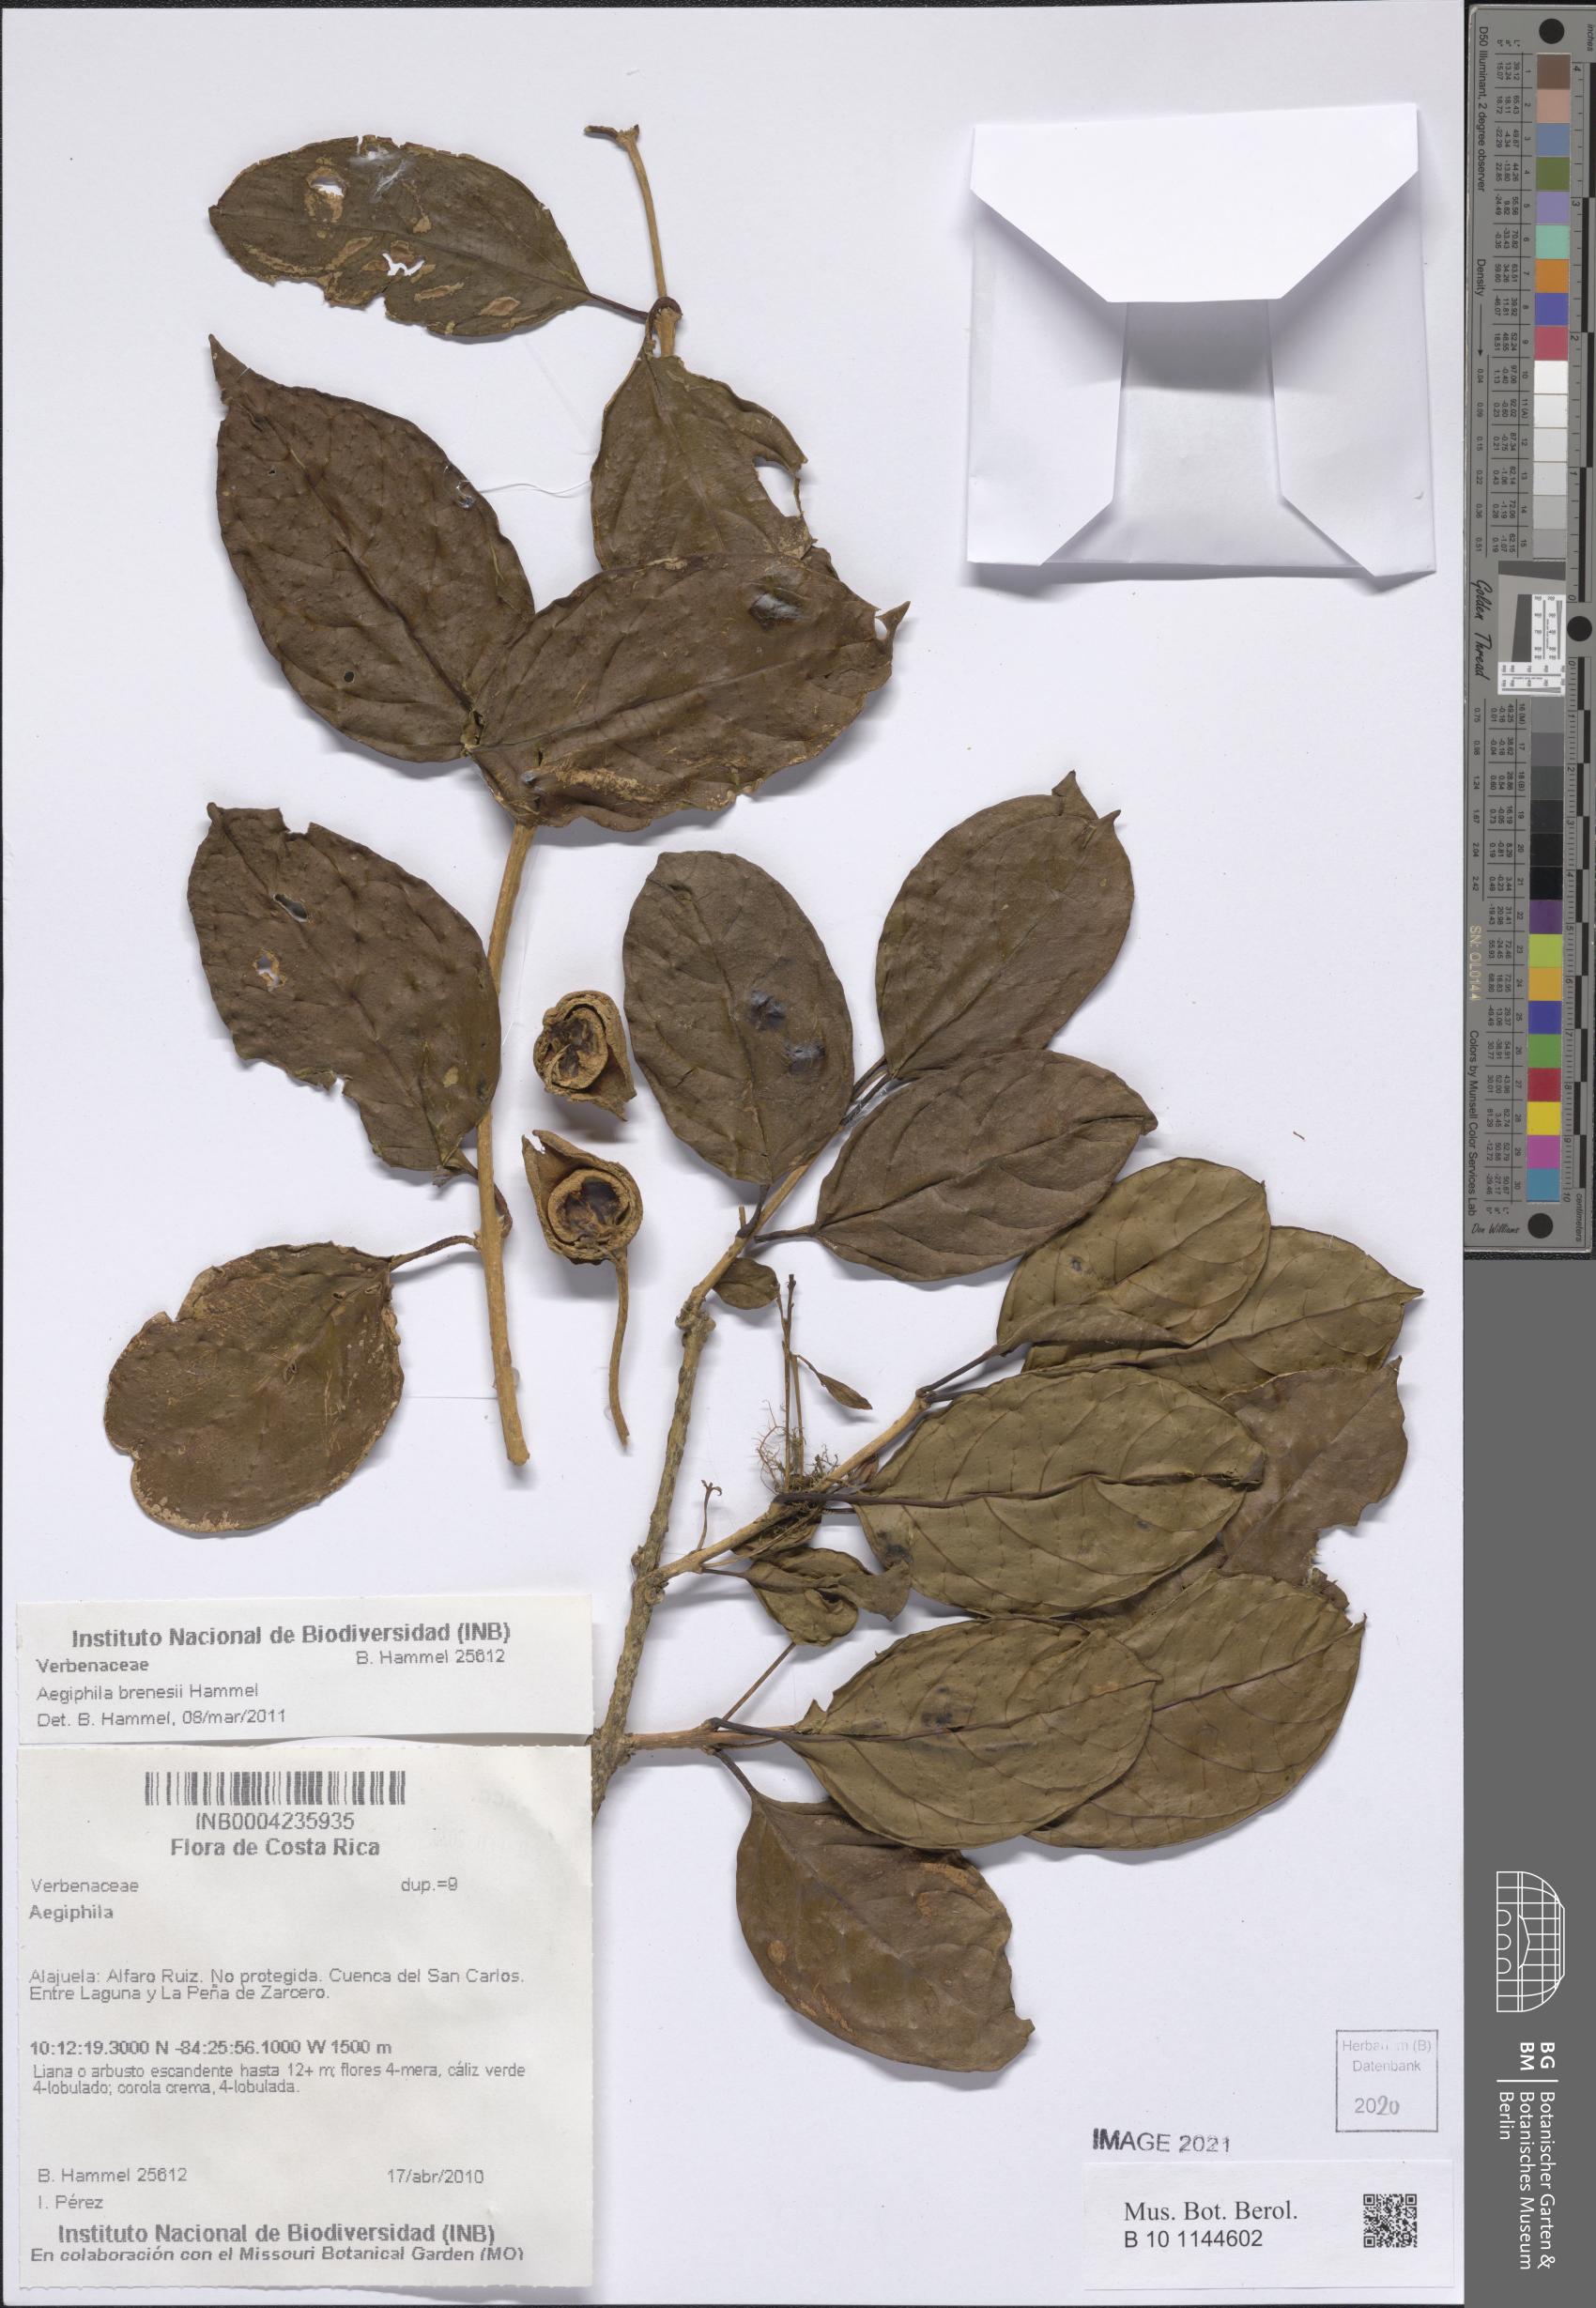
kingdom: Plantae
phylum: Tracheophyta
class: Magnoliopsida
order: Lamiales
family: Lamiaceae
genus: Aegiphila
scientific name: Aegiphila brenesii
